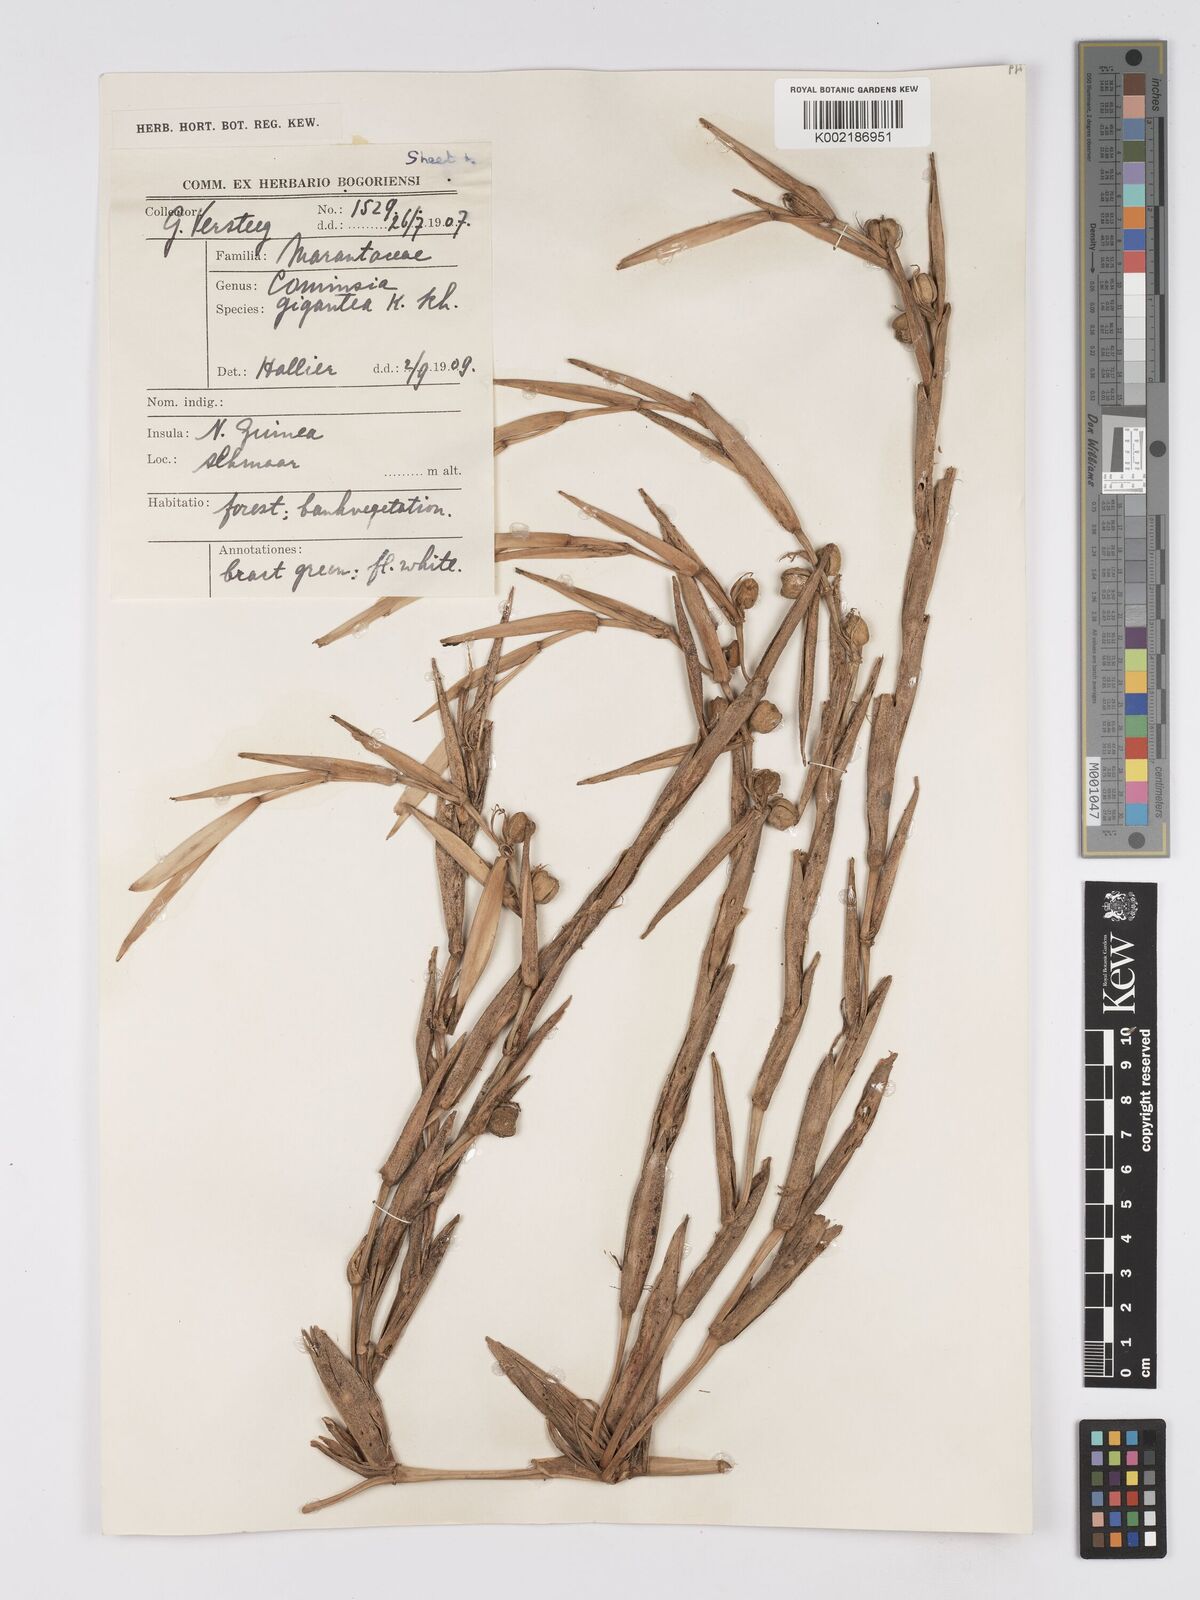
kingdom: Plantae
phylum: Tracheophyta
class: Liliopsida
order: Zingiberales
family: Marantaceae
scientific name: Marantaceae
